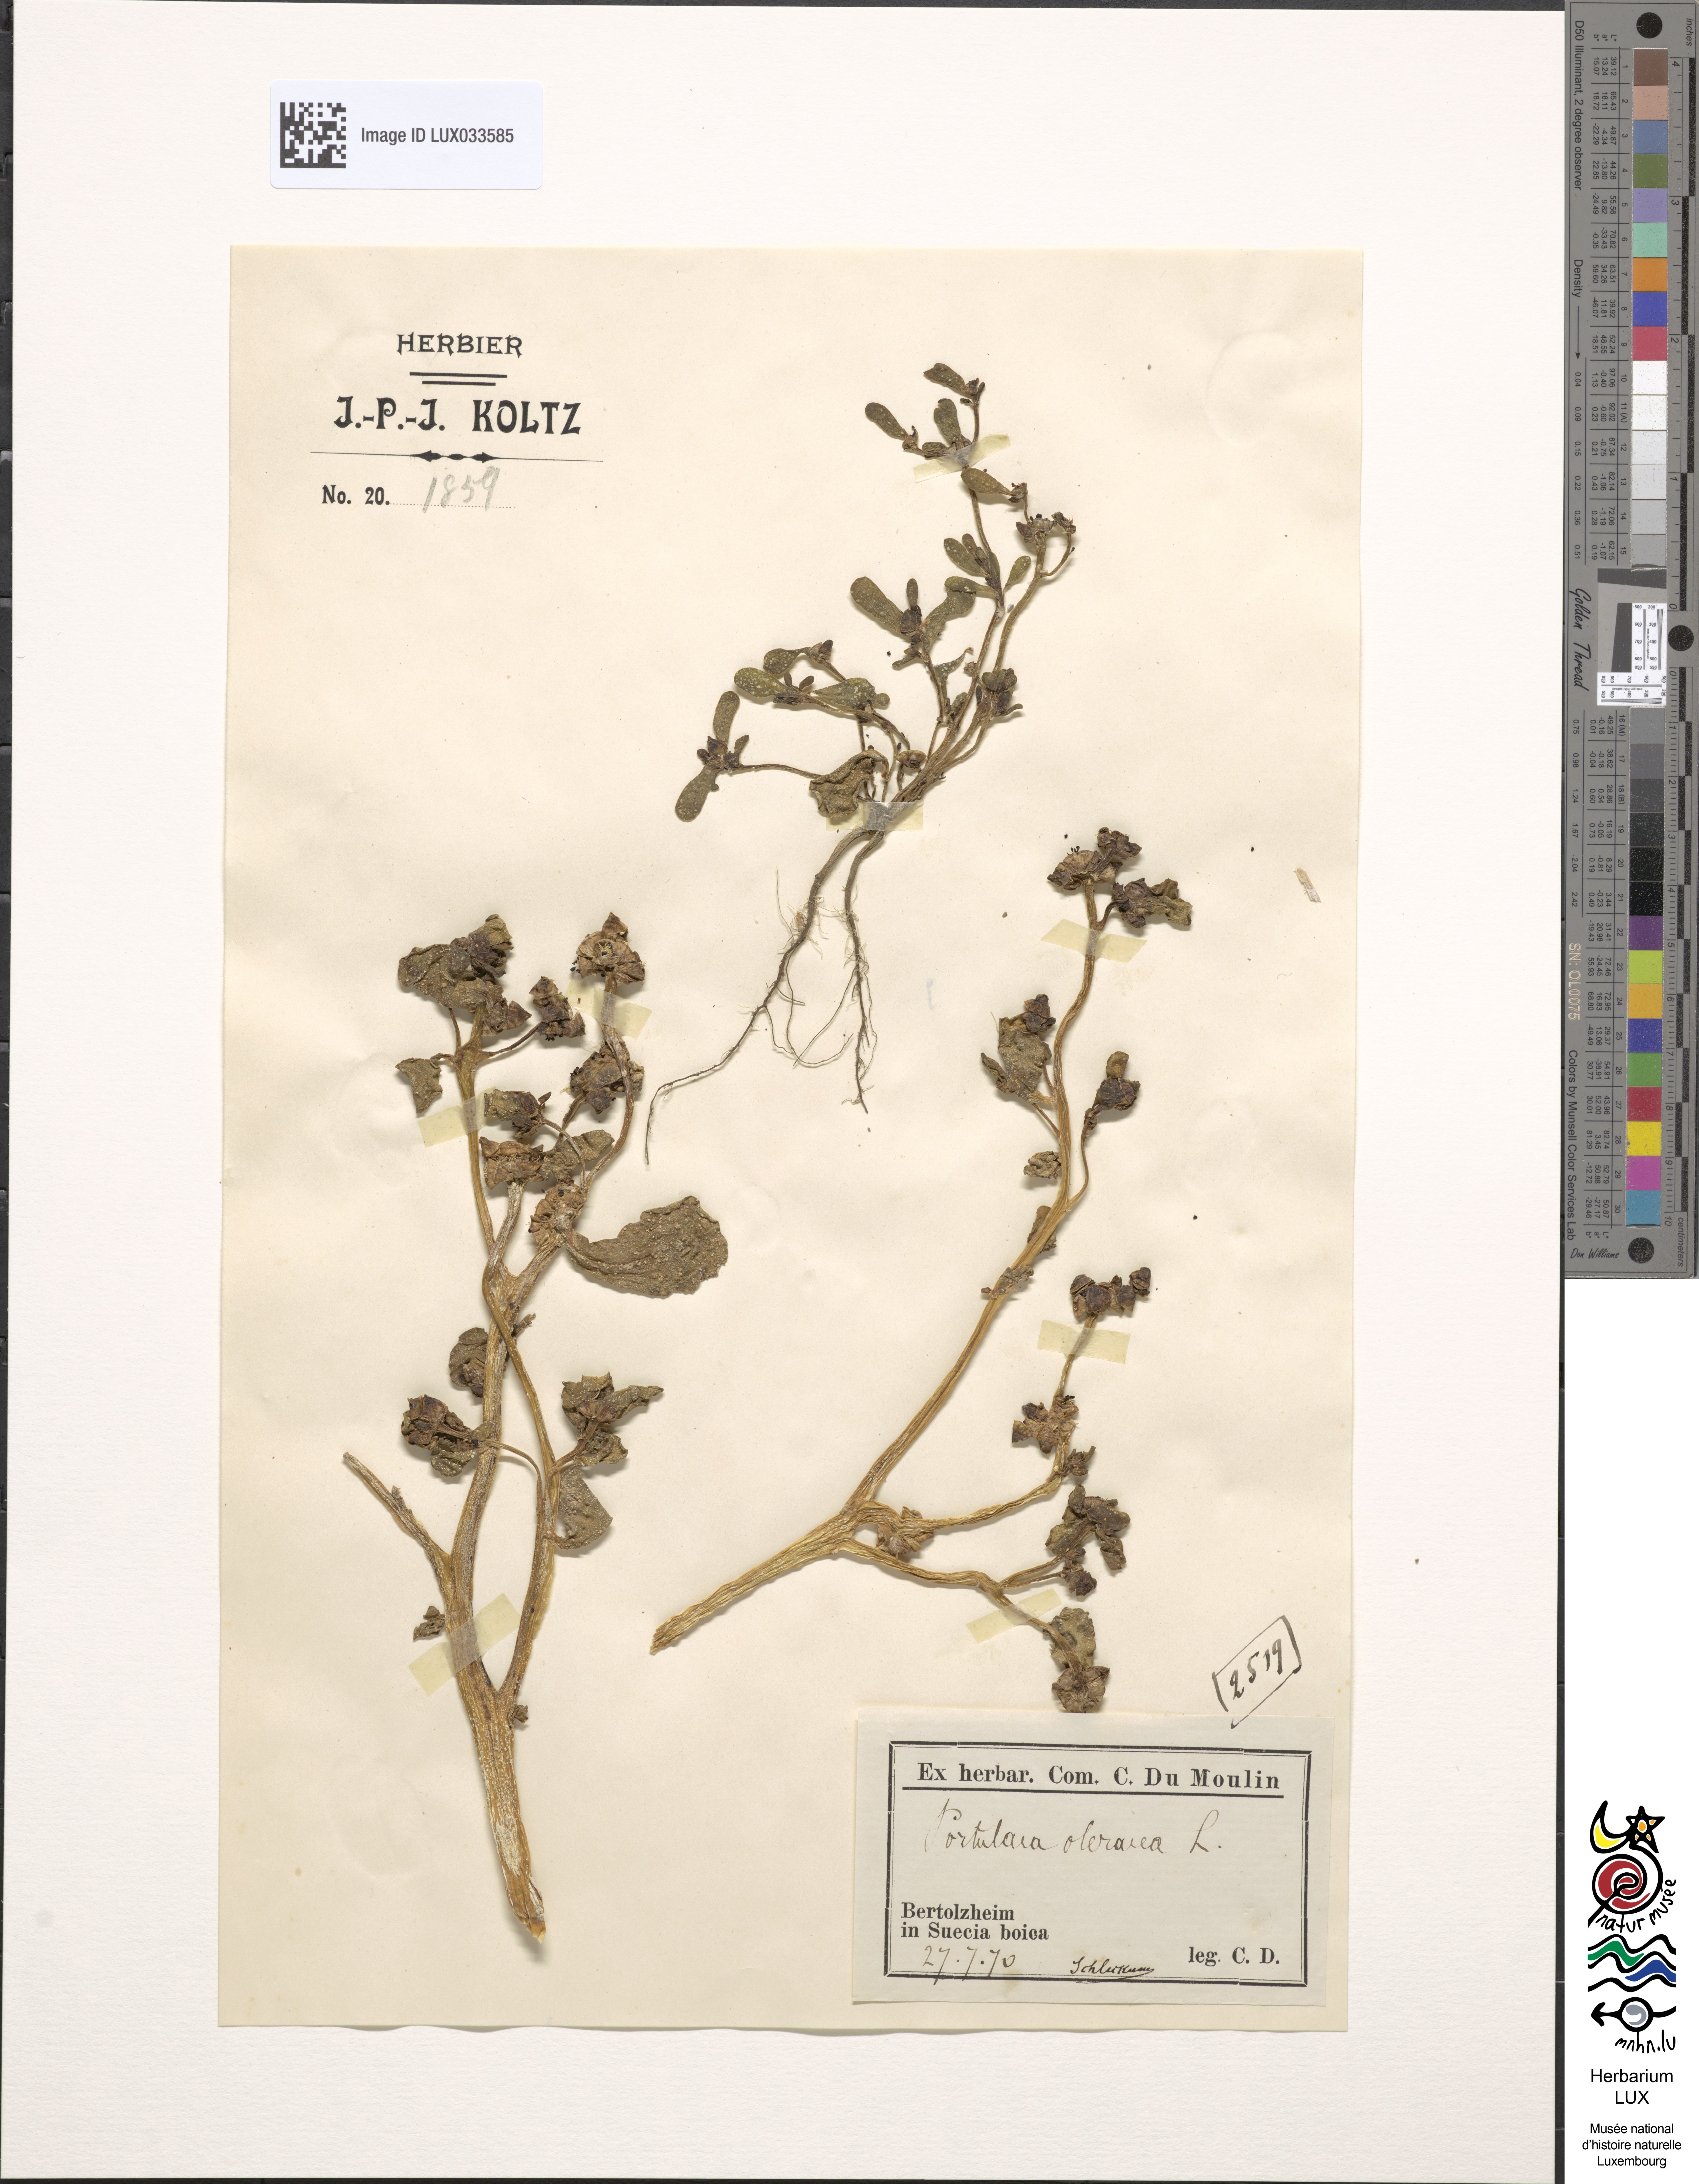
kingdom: Plantae
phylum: Tracheophyta
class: Magnoliopsida
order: Caryophyllales
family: Portulacaceae
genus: Portulaca
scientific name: Portulaca oleracea
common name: Common purslane
